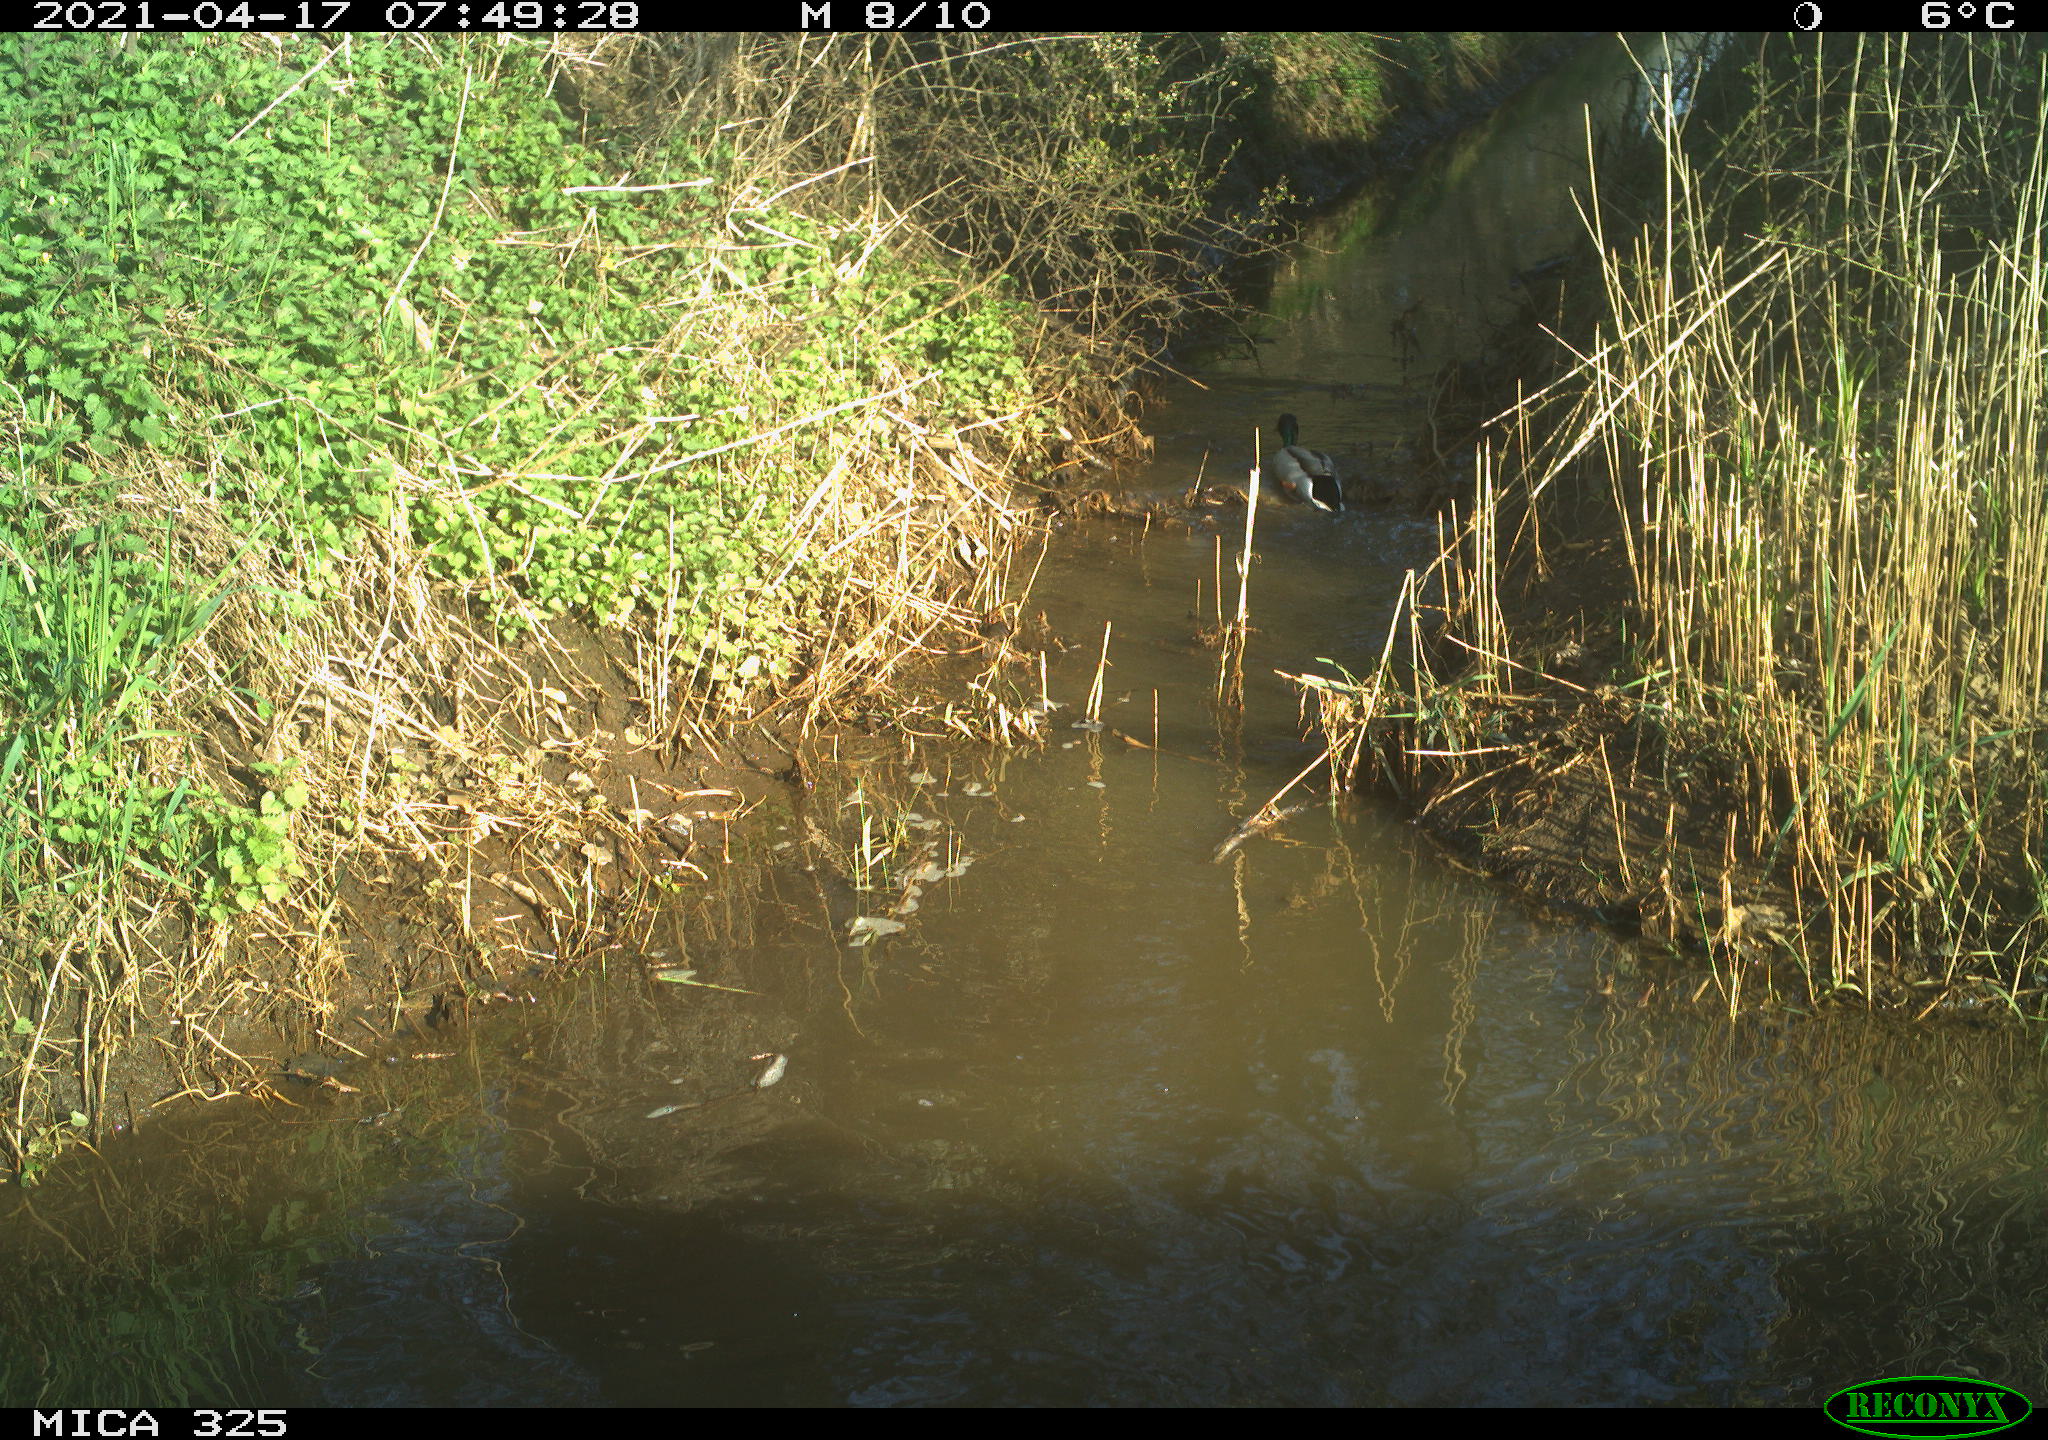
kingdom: Animalia
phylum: Chordata
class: Aves
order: Anseriformes
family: Anatidae
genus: Anas
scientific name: Anas platyrhynchos
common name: Mallard
